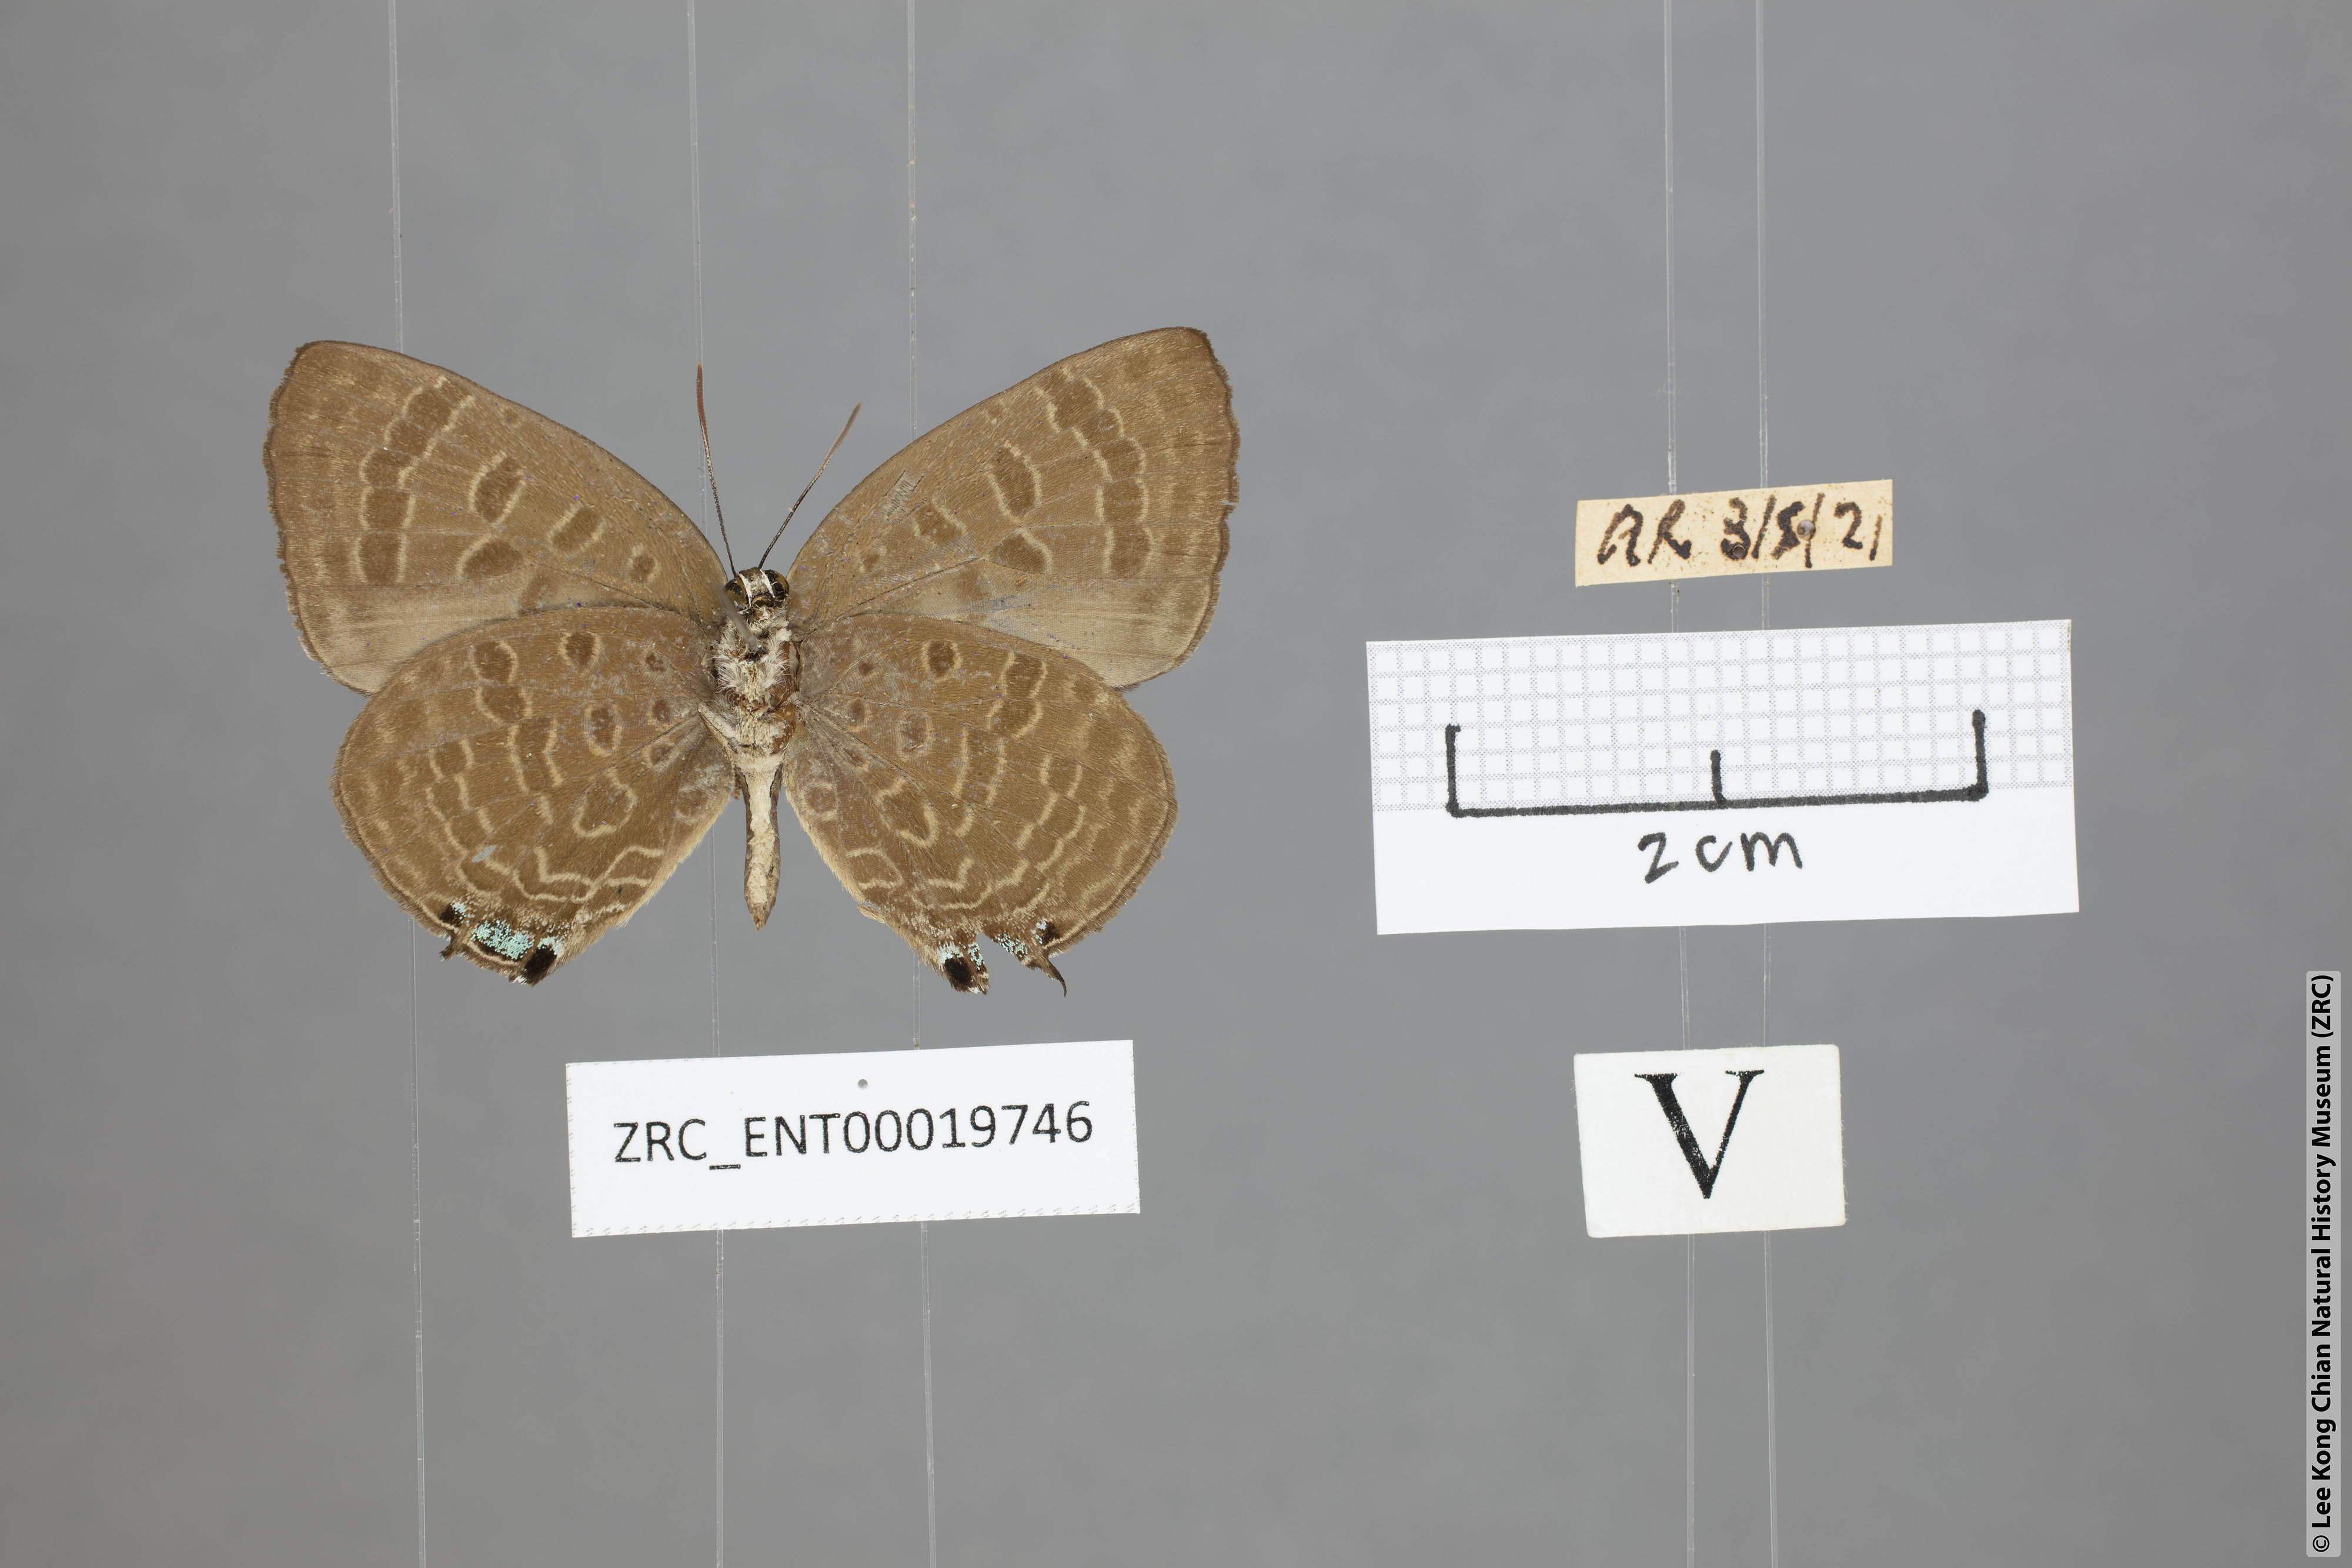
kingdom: Animalia
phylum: Arthropoda
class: Insecta
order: Lepidoptera
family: Lycaenidae
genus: Arhopala
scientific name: Arhopala normani
